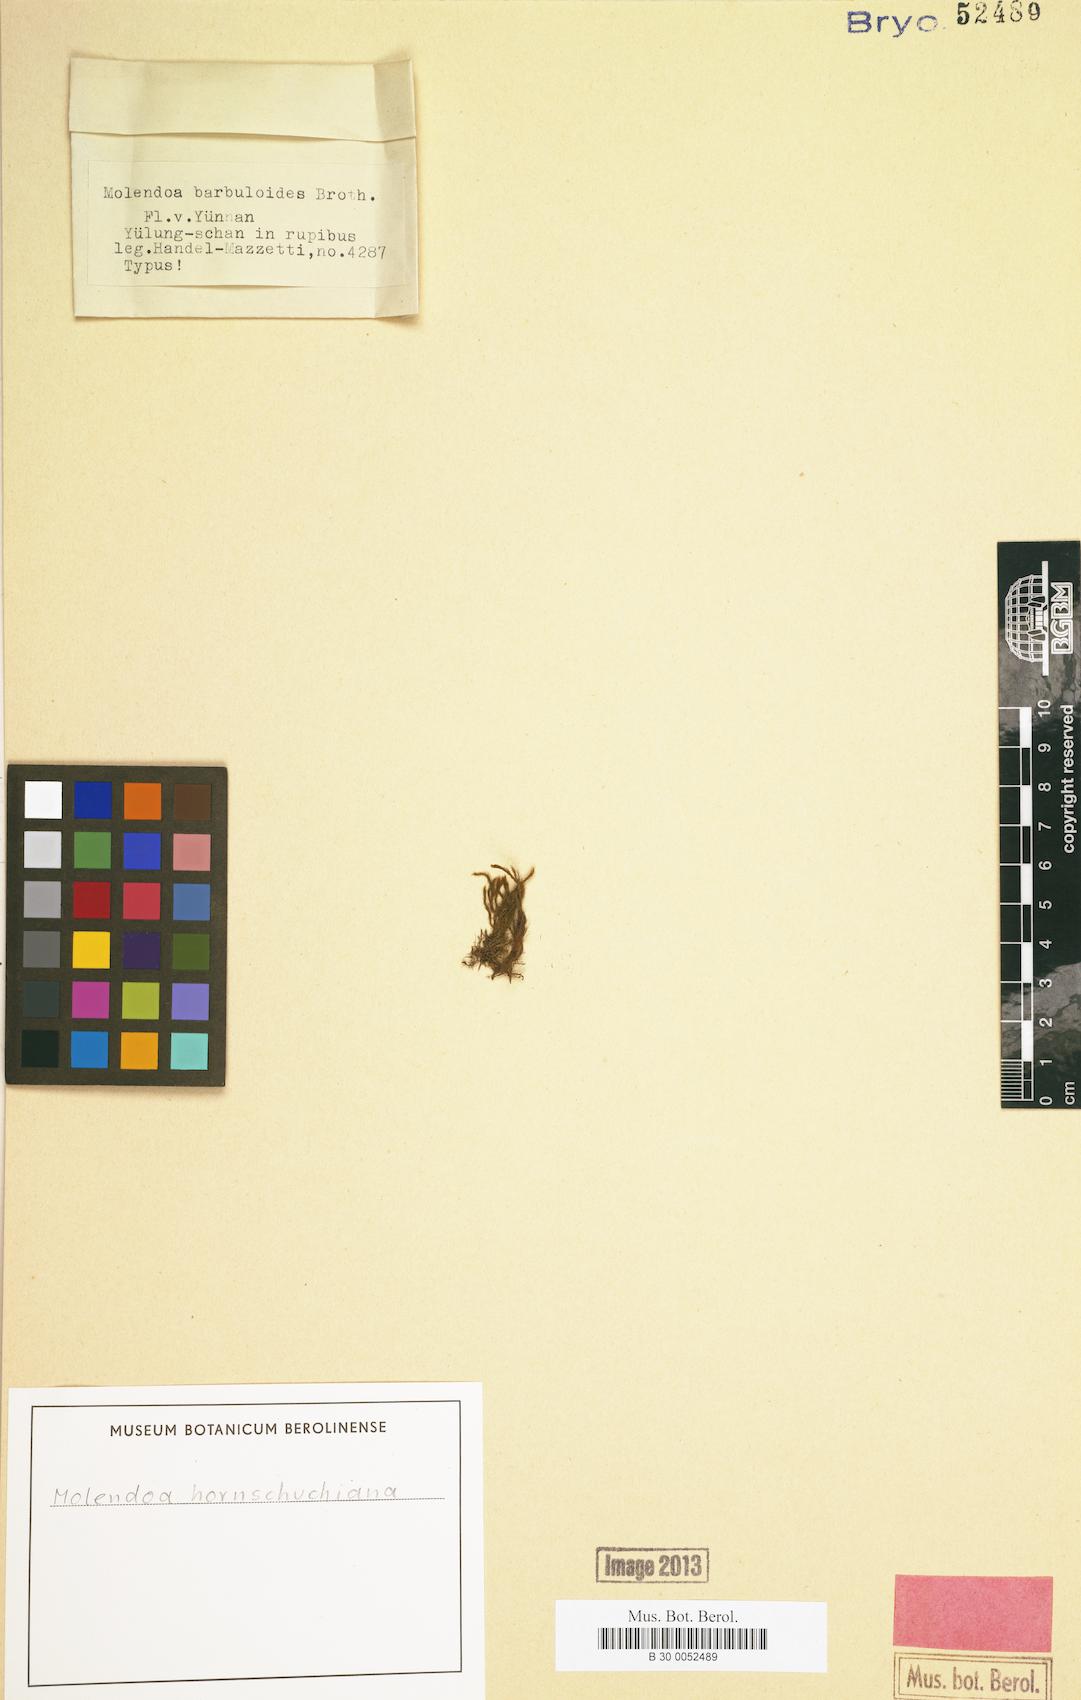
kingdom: Plantae
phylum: Bryophyta
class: Bryopsida
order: Pottiales
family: Pottiaceae
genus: Molendoa
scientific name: Molendoa hornschuchiana
